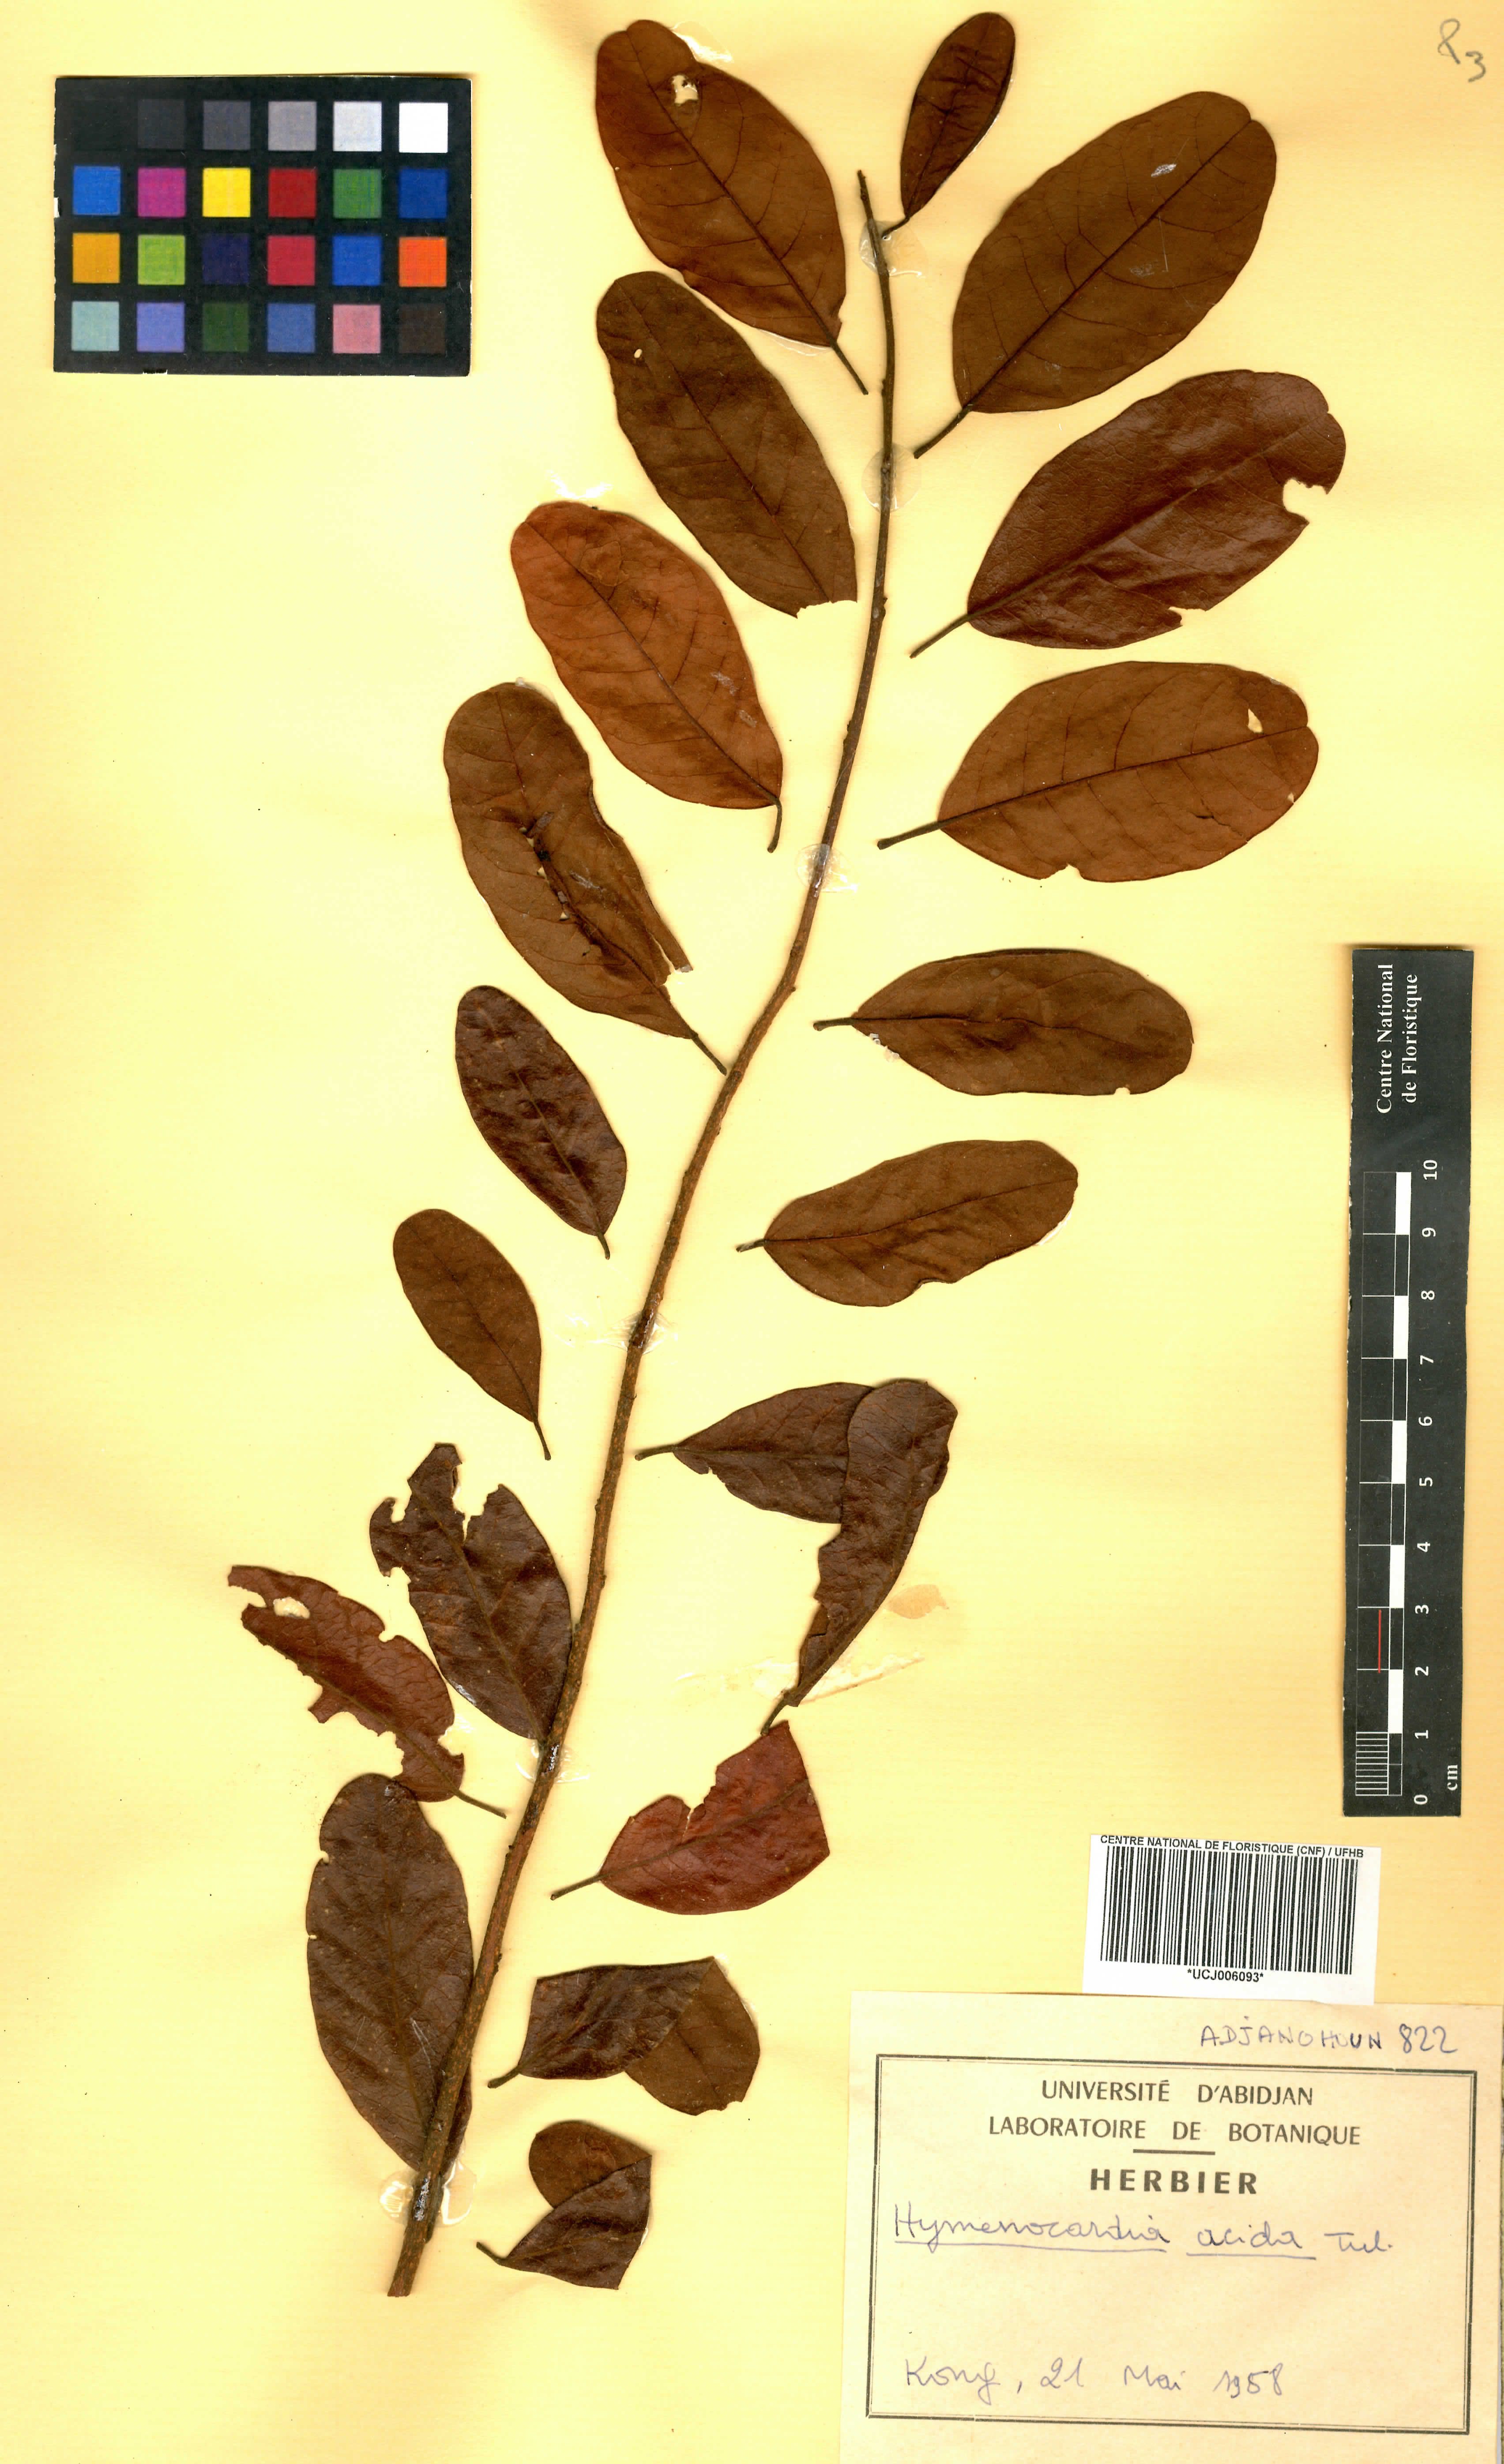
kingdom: Plantae
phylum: Tracheophyta
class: Magnoliopsida
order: Malpighiales
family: Phyllanthaceae
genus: Hymenocardia
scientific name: Hymenocardia acida
